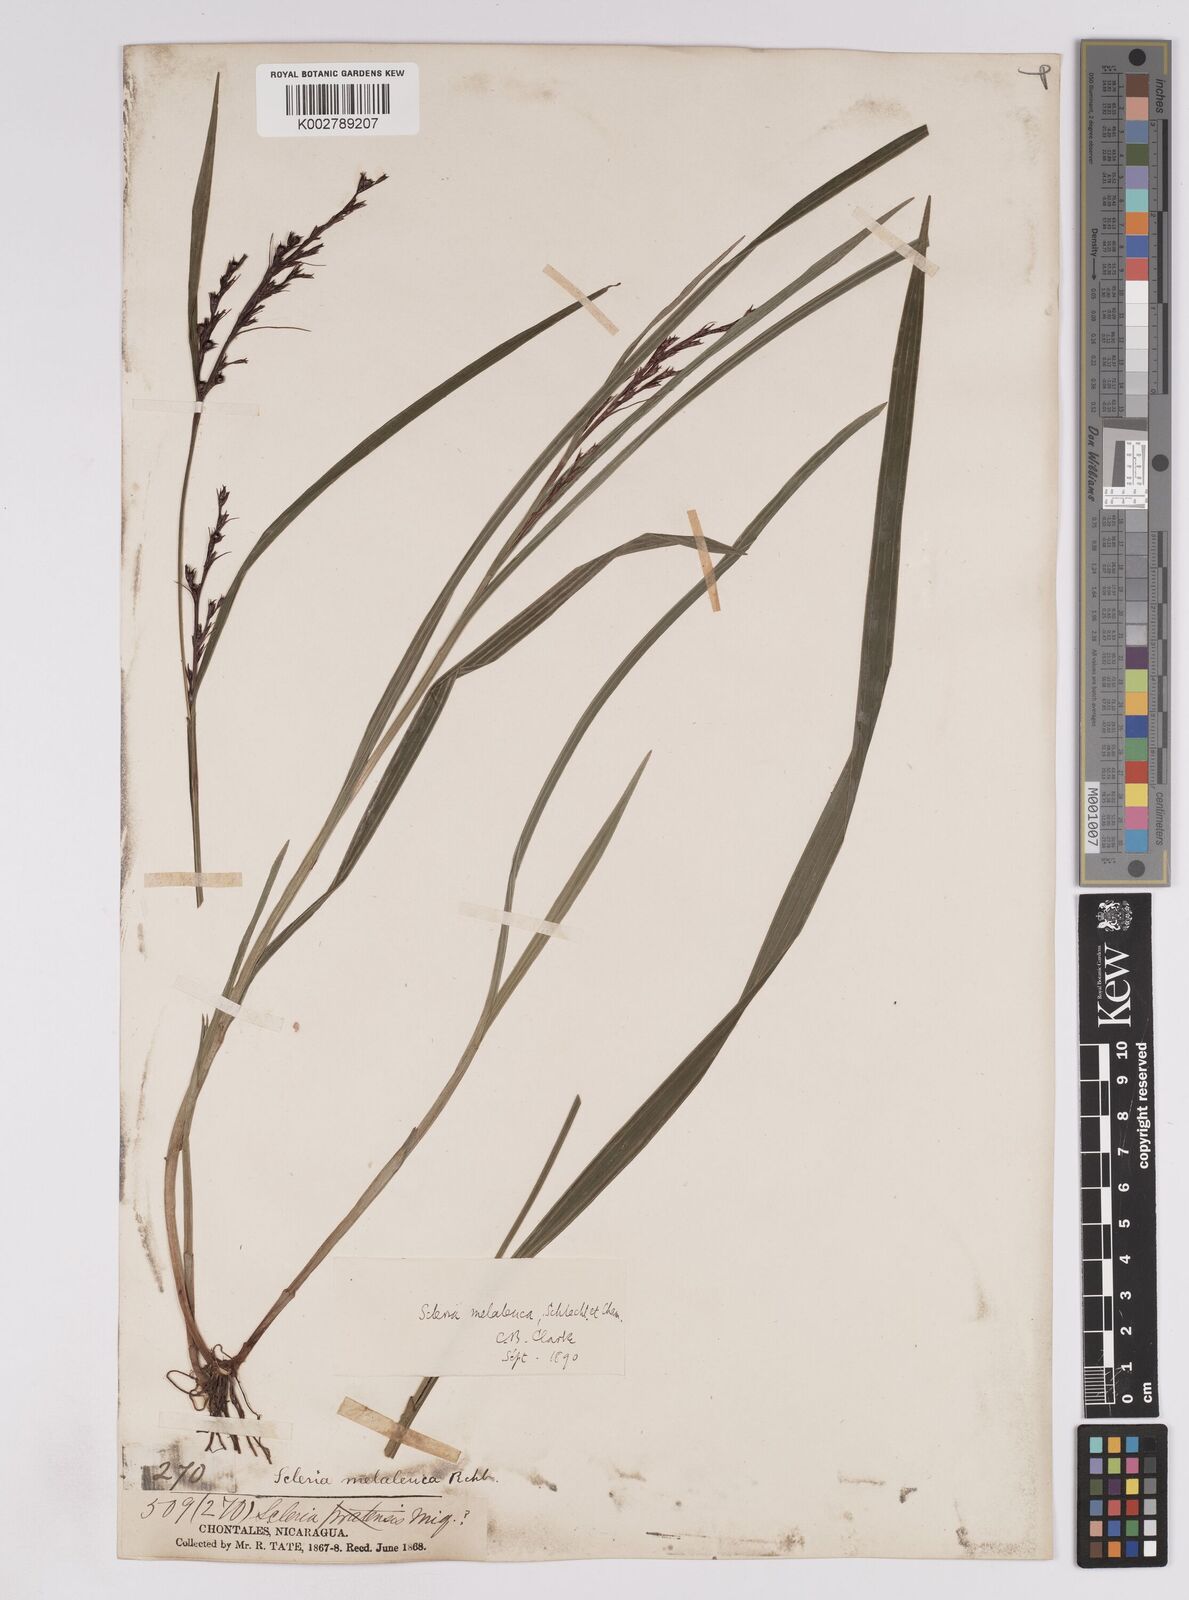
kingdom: Plantae
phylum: Tracheophyta
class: Liliopsida
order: Poales
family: Cyperaceae
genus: Scleria
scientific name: Scleria gaertneri
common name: Cortadera blanca
